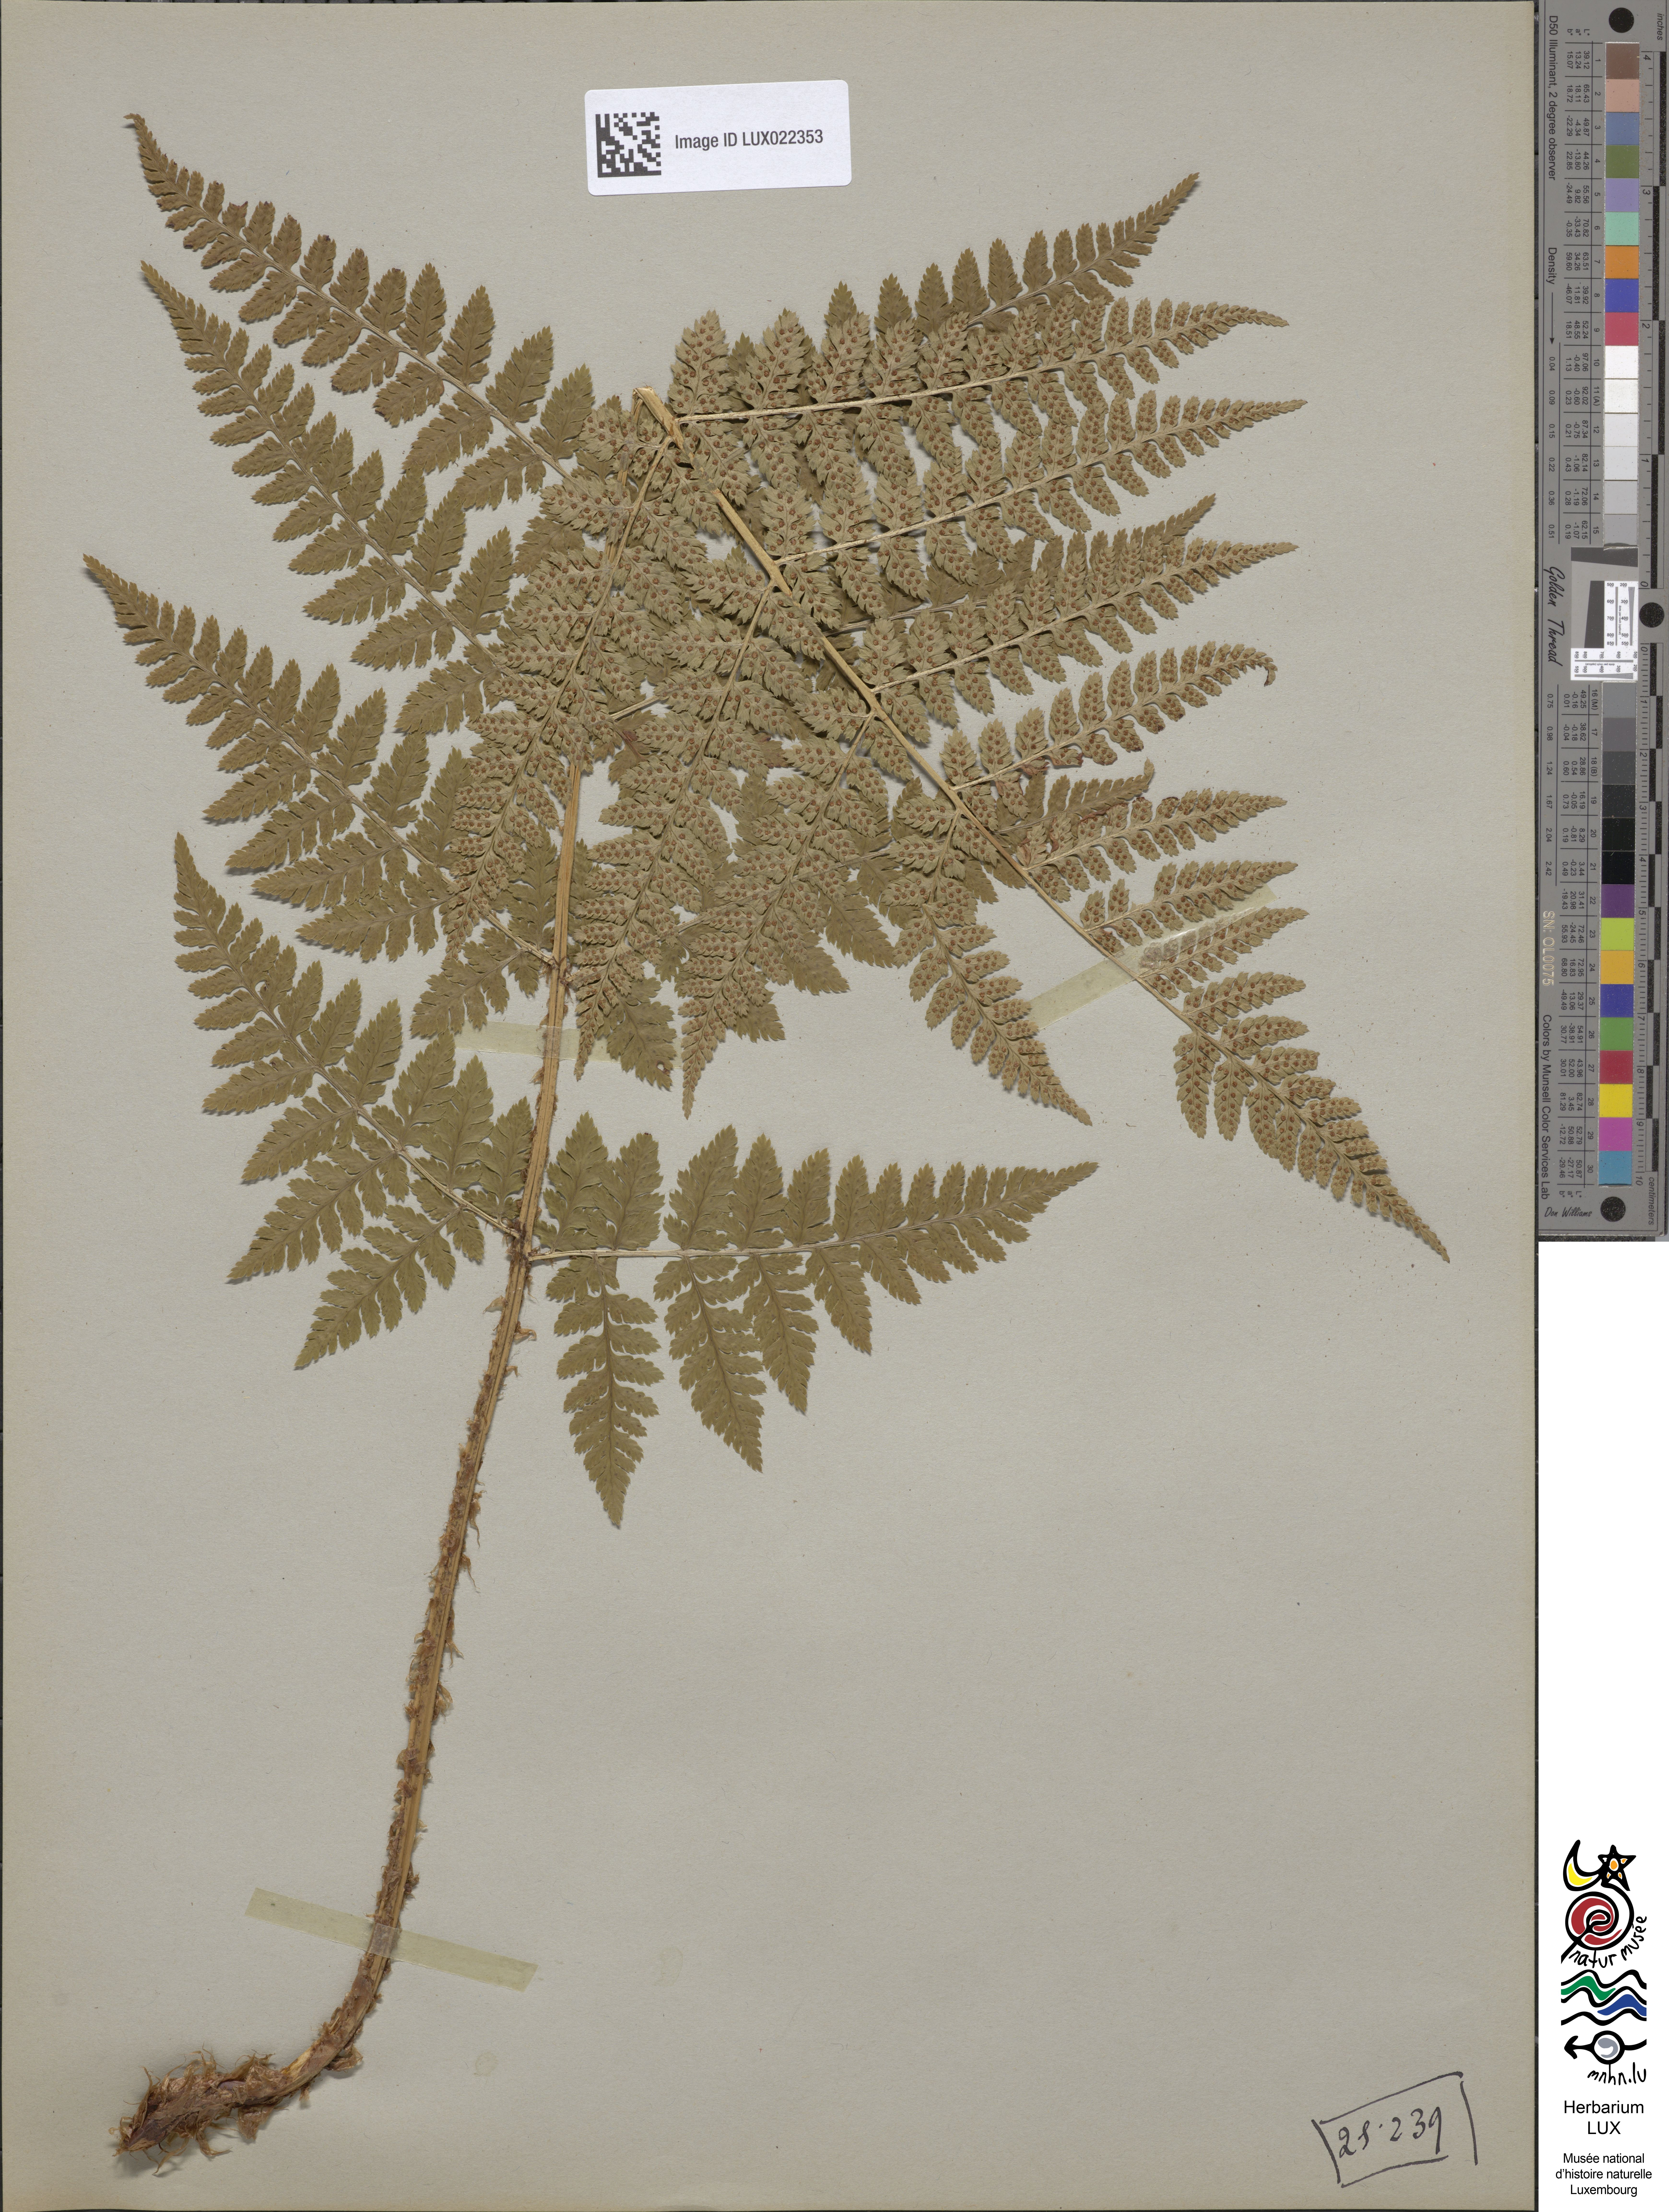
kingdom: Plantae
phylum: Tracheophyta
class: Polypodiopsida
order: Polypodiales
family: Dryopteridaceae
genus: Dryopteris
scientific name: Dryopteris dilatata
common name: Broad buckler-fern
